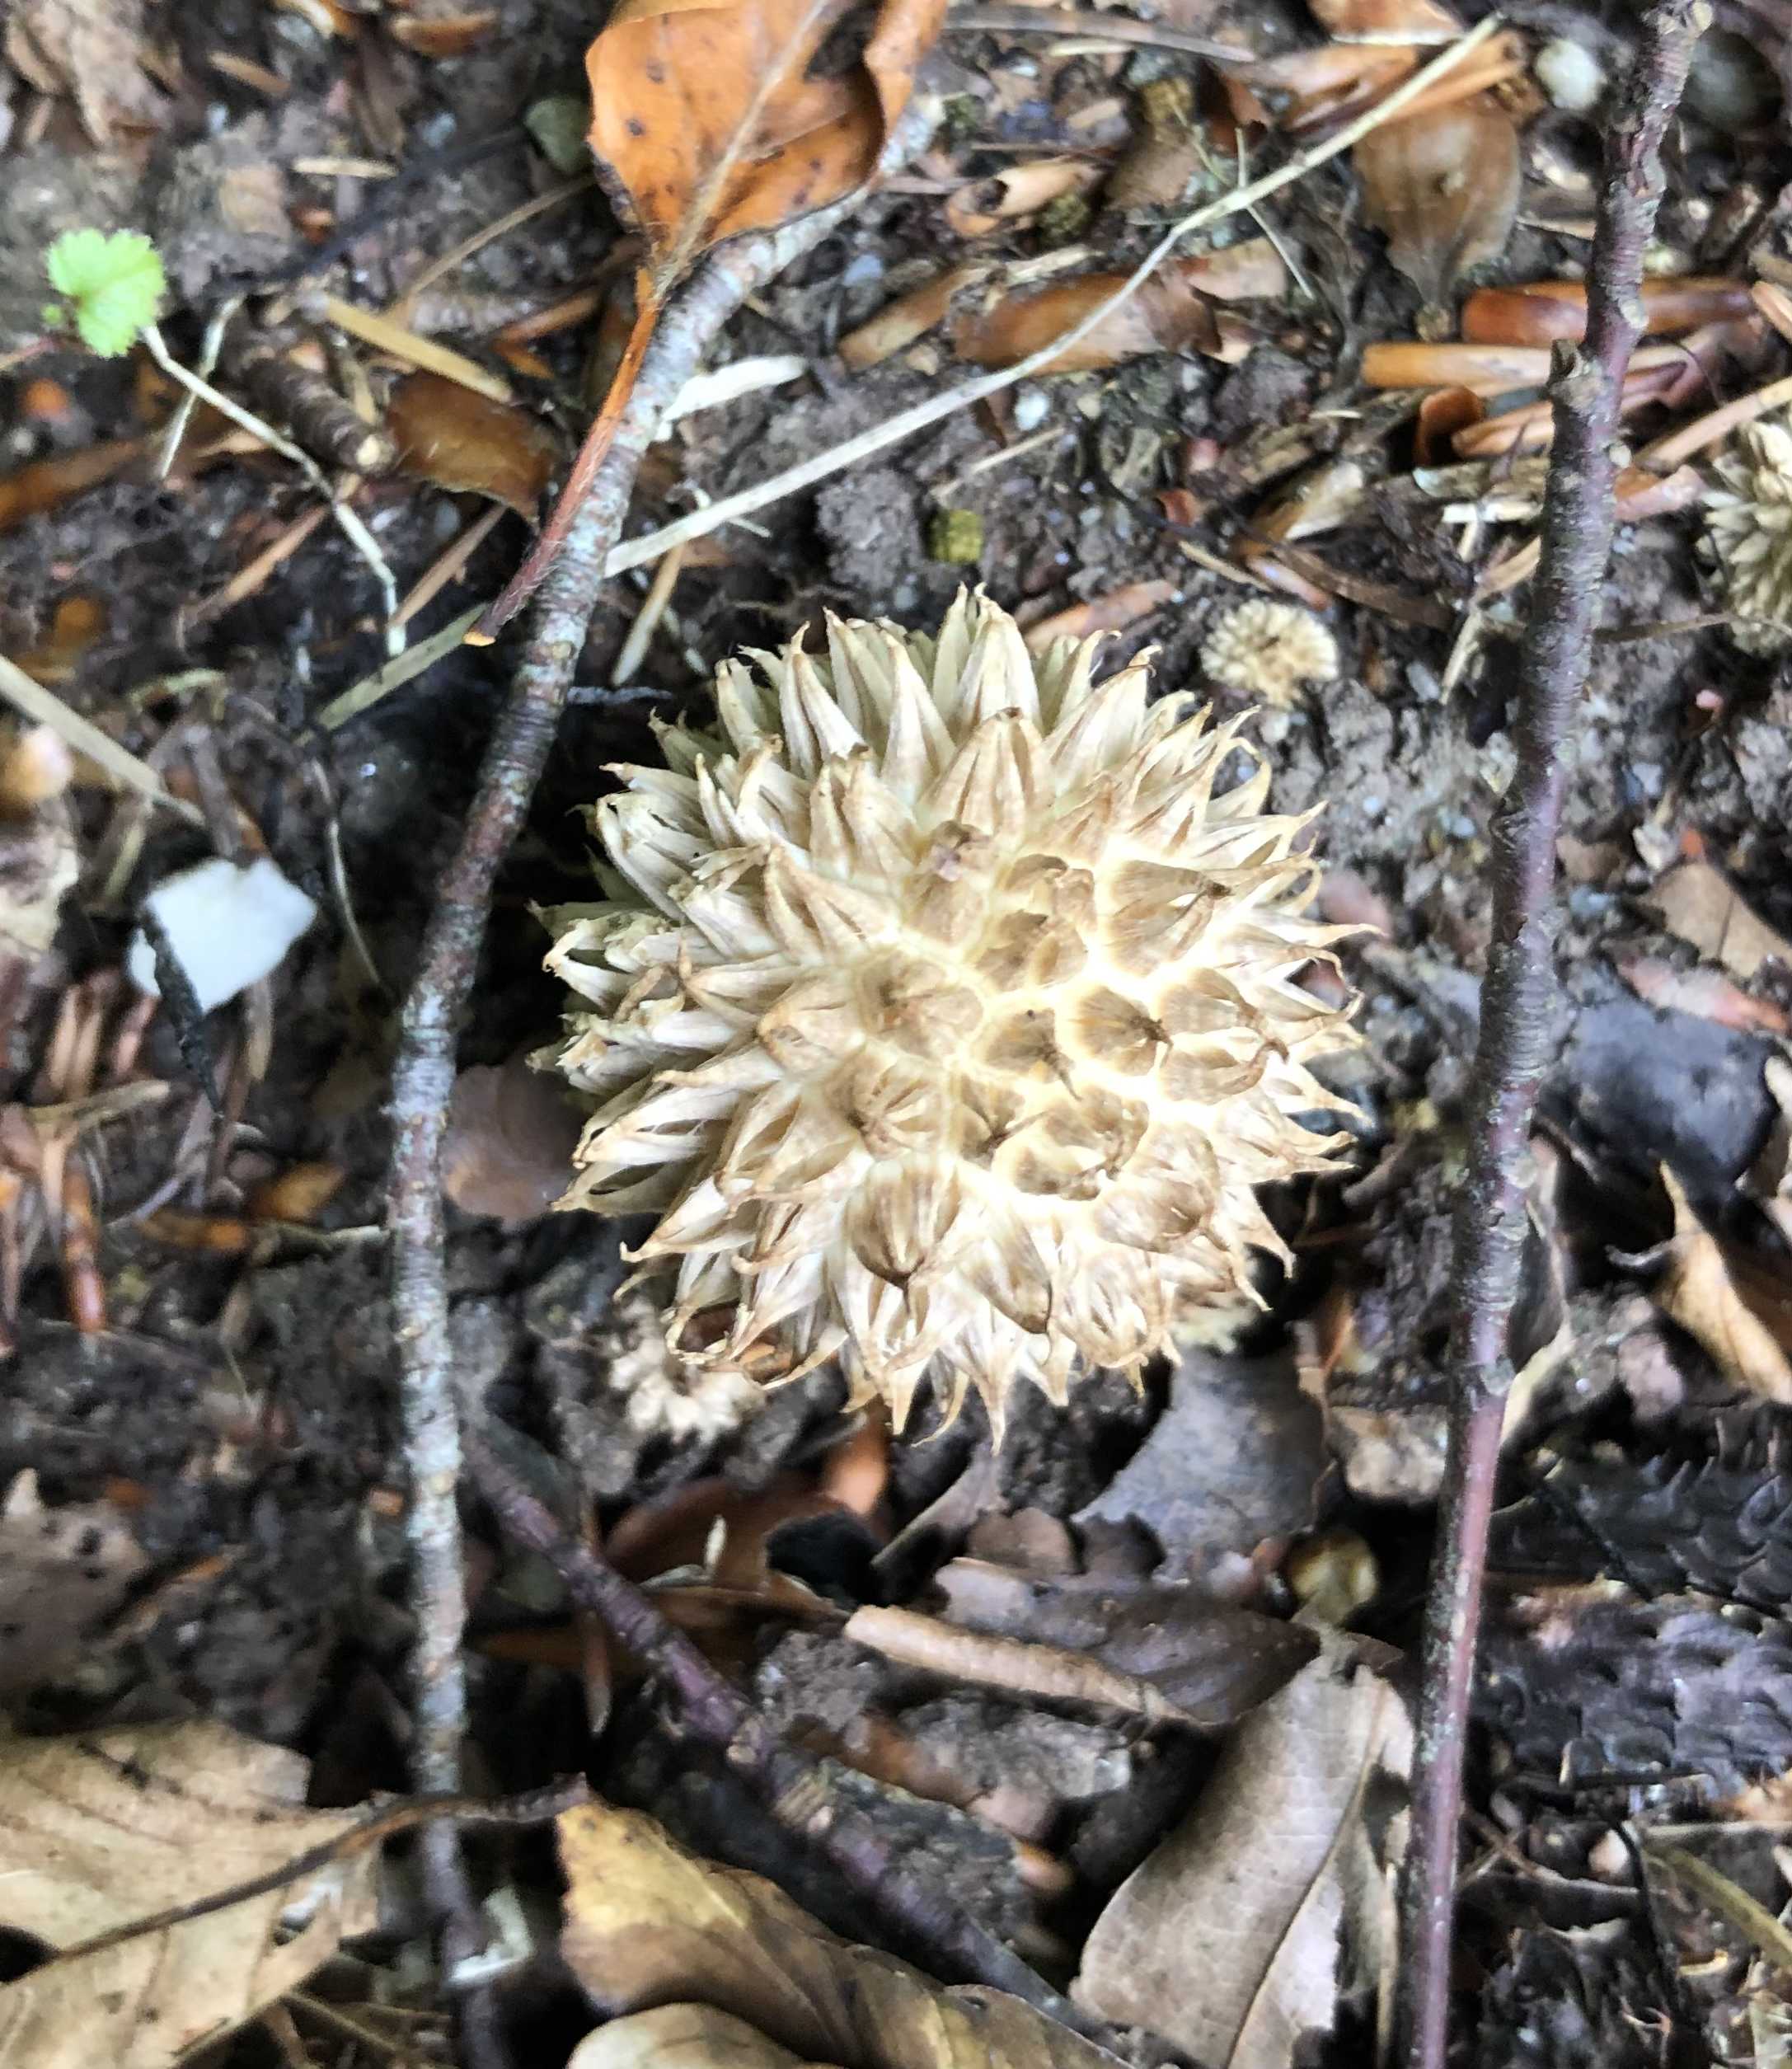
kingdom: Fungi
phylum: Basidiomycota
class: Agaricomycetes
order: Agaricales
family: Lycoperdaceae
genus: Lycoperdon
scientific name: Lycoperdon echinatum
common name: pindsvine-støvbold
